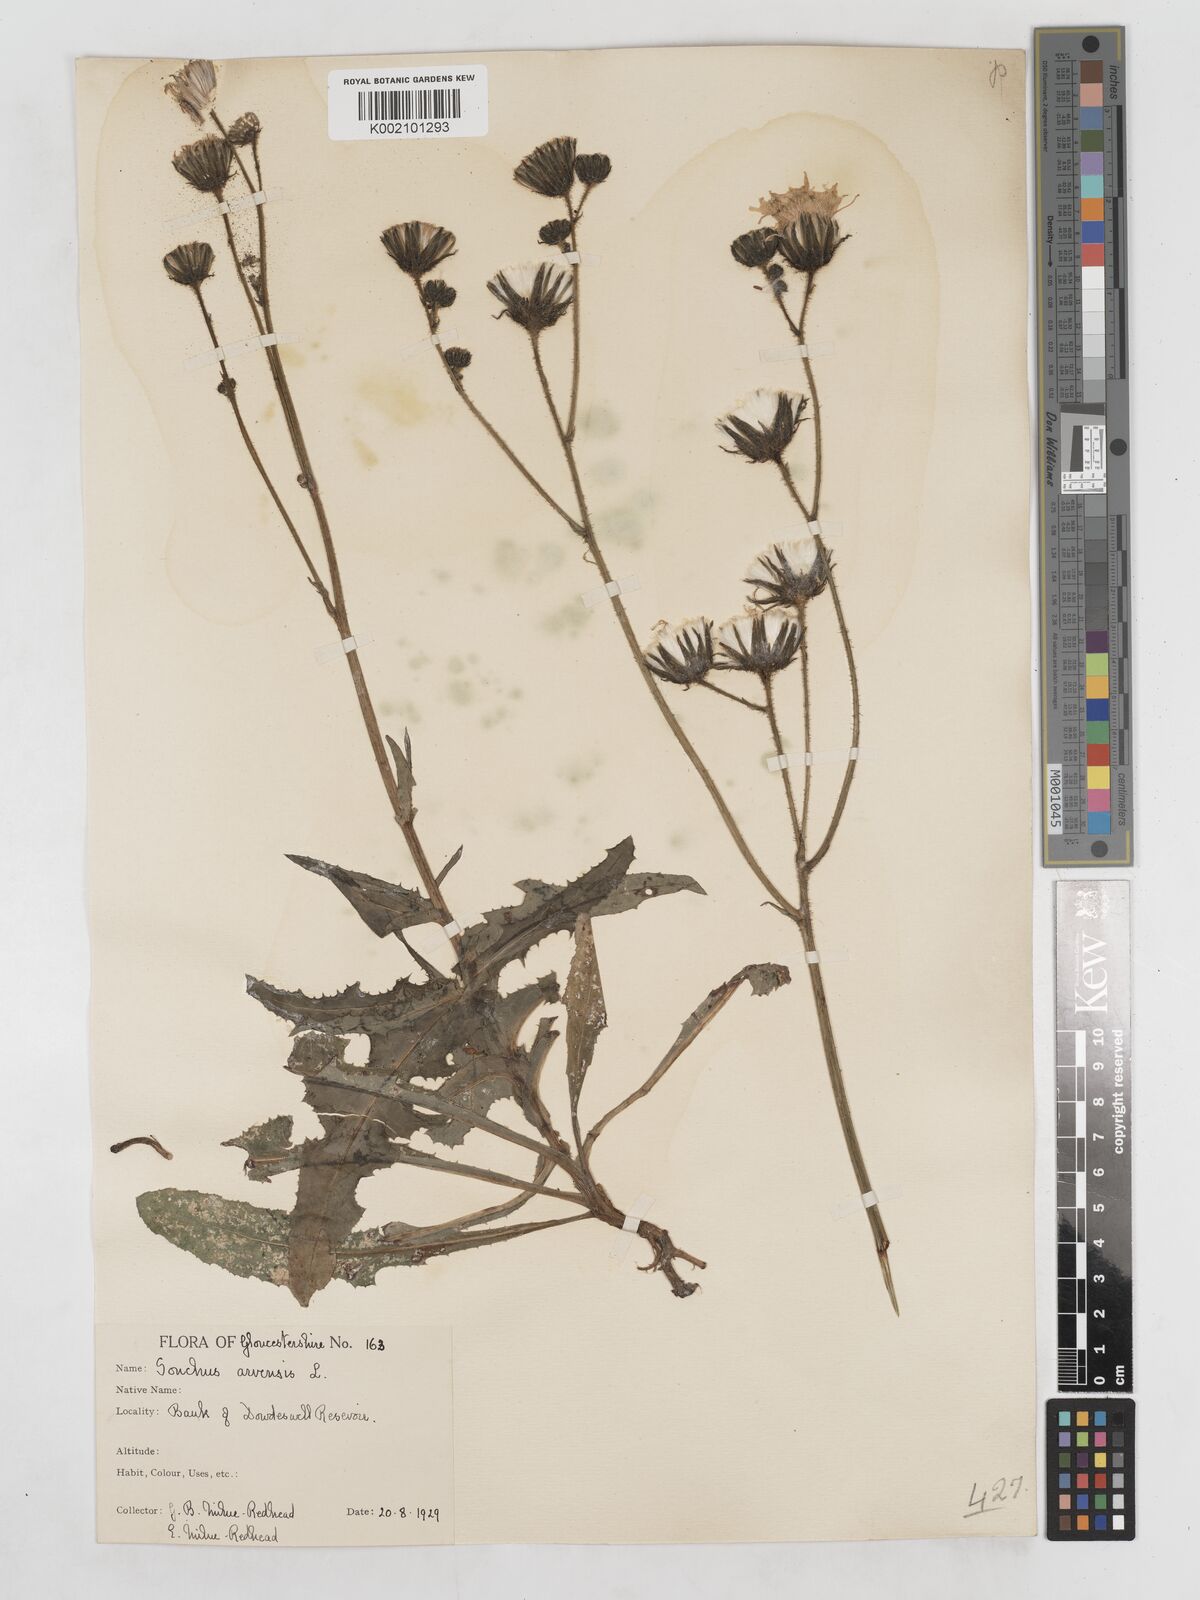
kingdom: Plantae
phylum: Tracheophyta
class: Magnoliopsida
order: Asterales
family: Asteraceae
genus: Sonchus
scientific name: Sonchus arvensis
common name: Perennial sow-thistle
